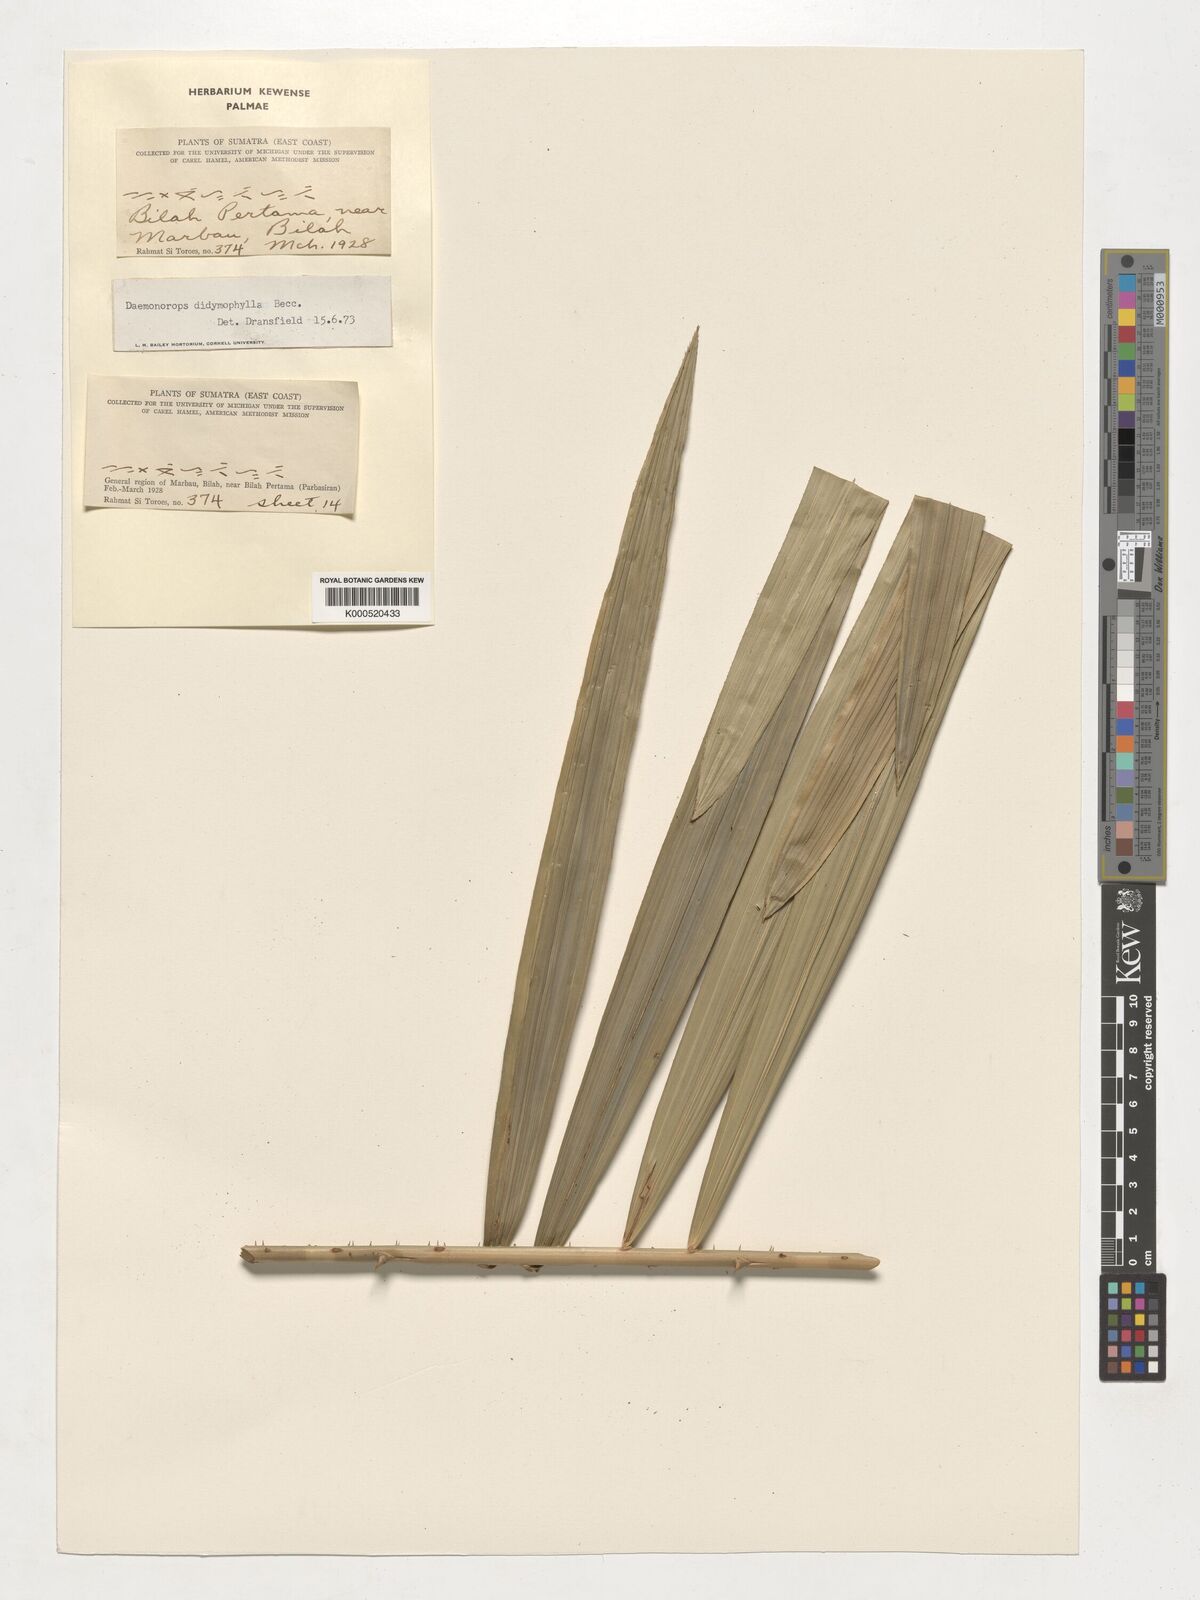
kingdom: Plantae
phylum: Tracheophyta
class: Liliopsida
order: Arecales
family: Arecaceae
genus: Pinanga
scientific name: Pinanga lepidota
